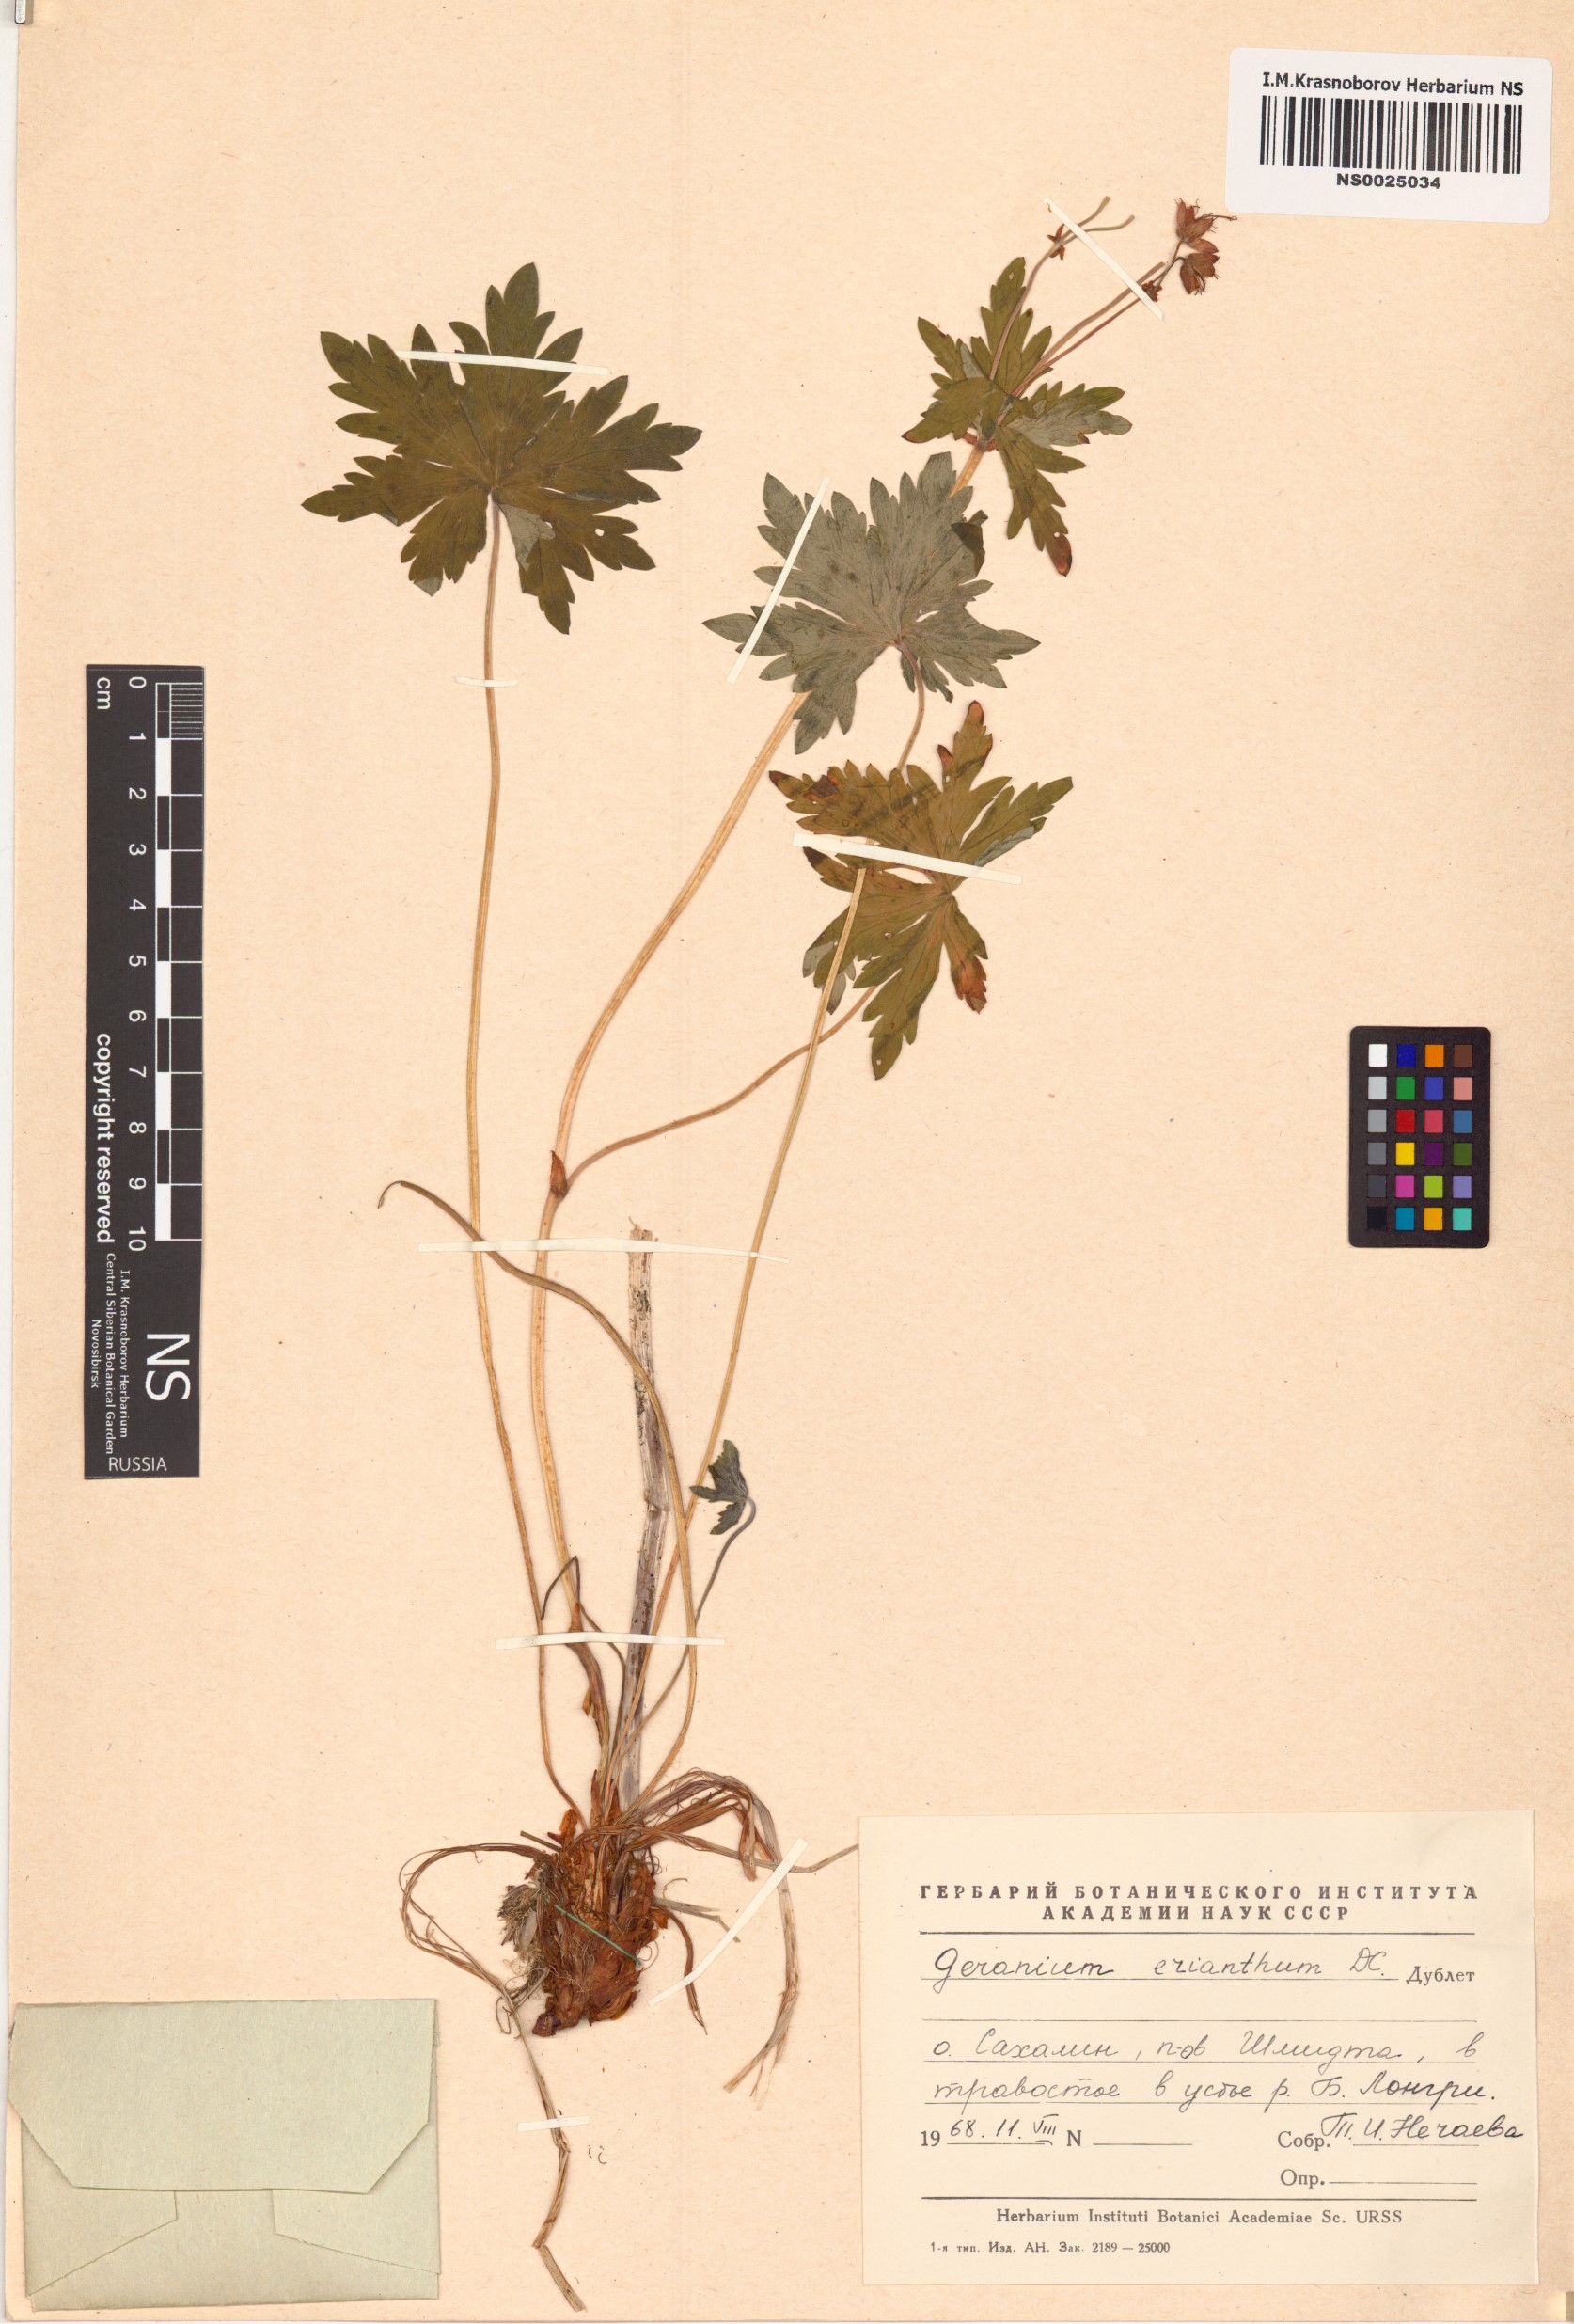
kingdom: Plantae
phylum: Tracheophyta
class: Magnoliopsida
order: Geraniales
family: Geraniaceae
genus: Geranium
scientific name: Geranium erianthum
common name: Northern crane's-bill
